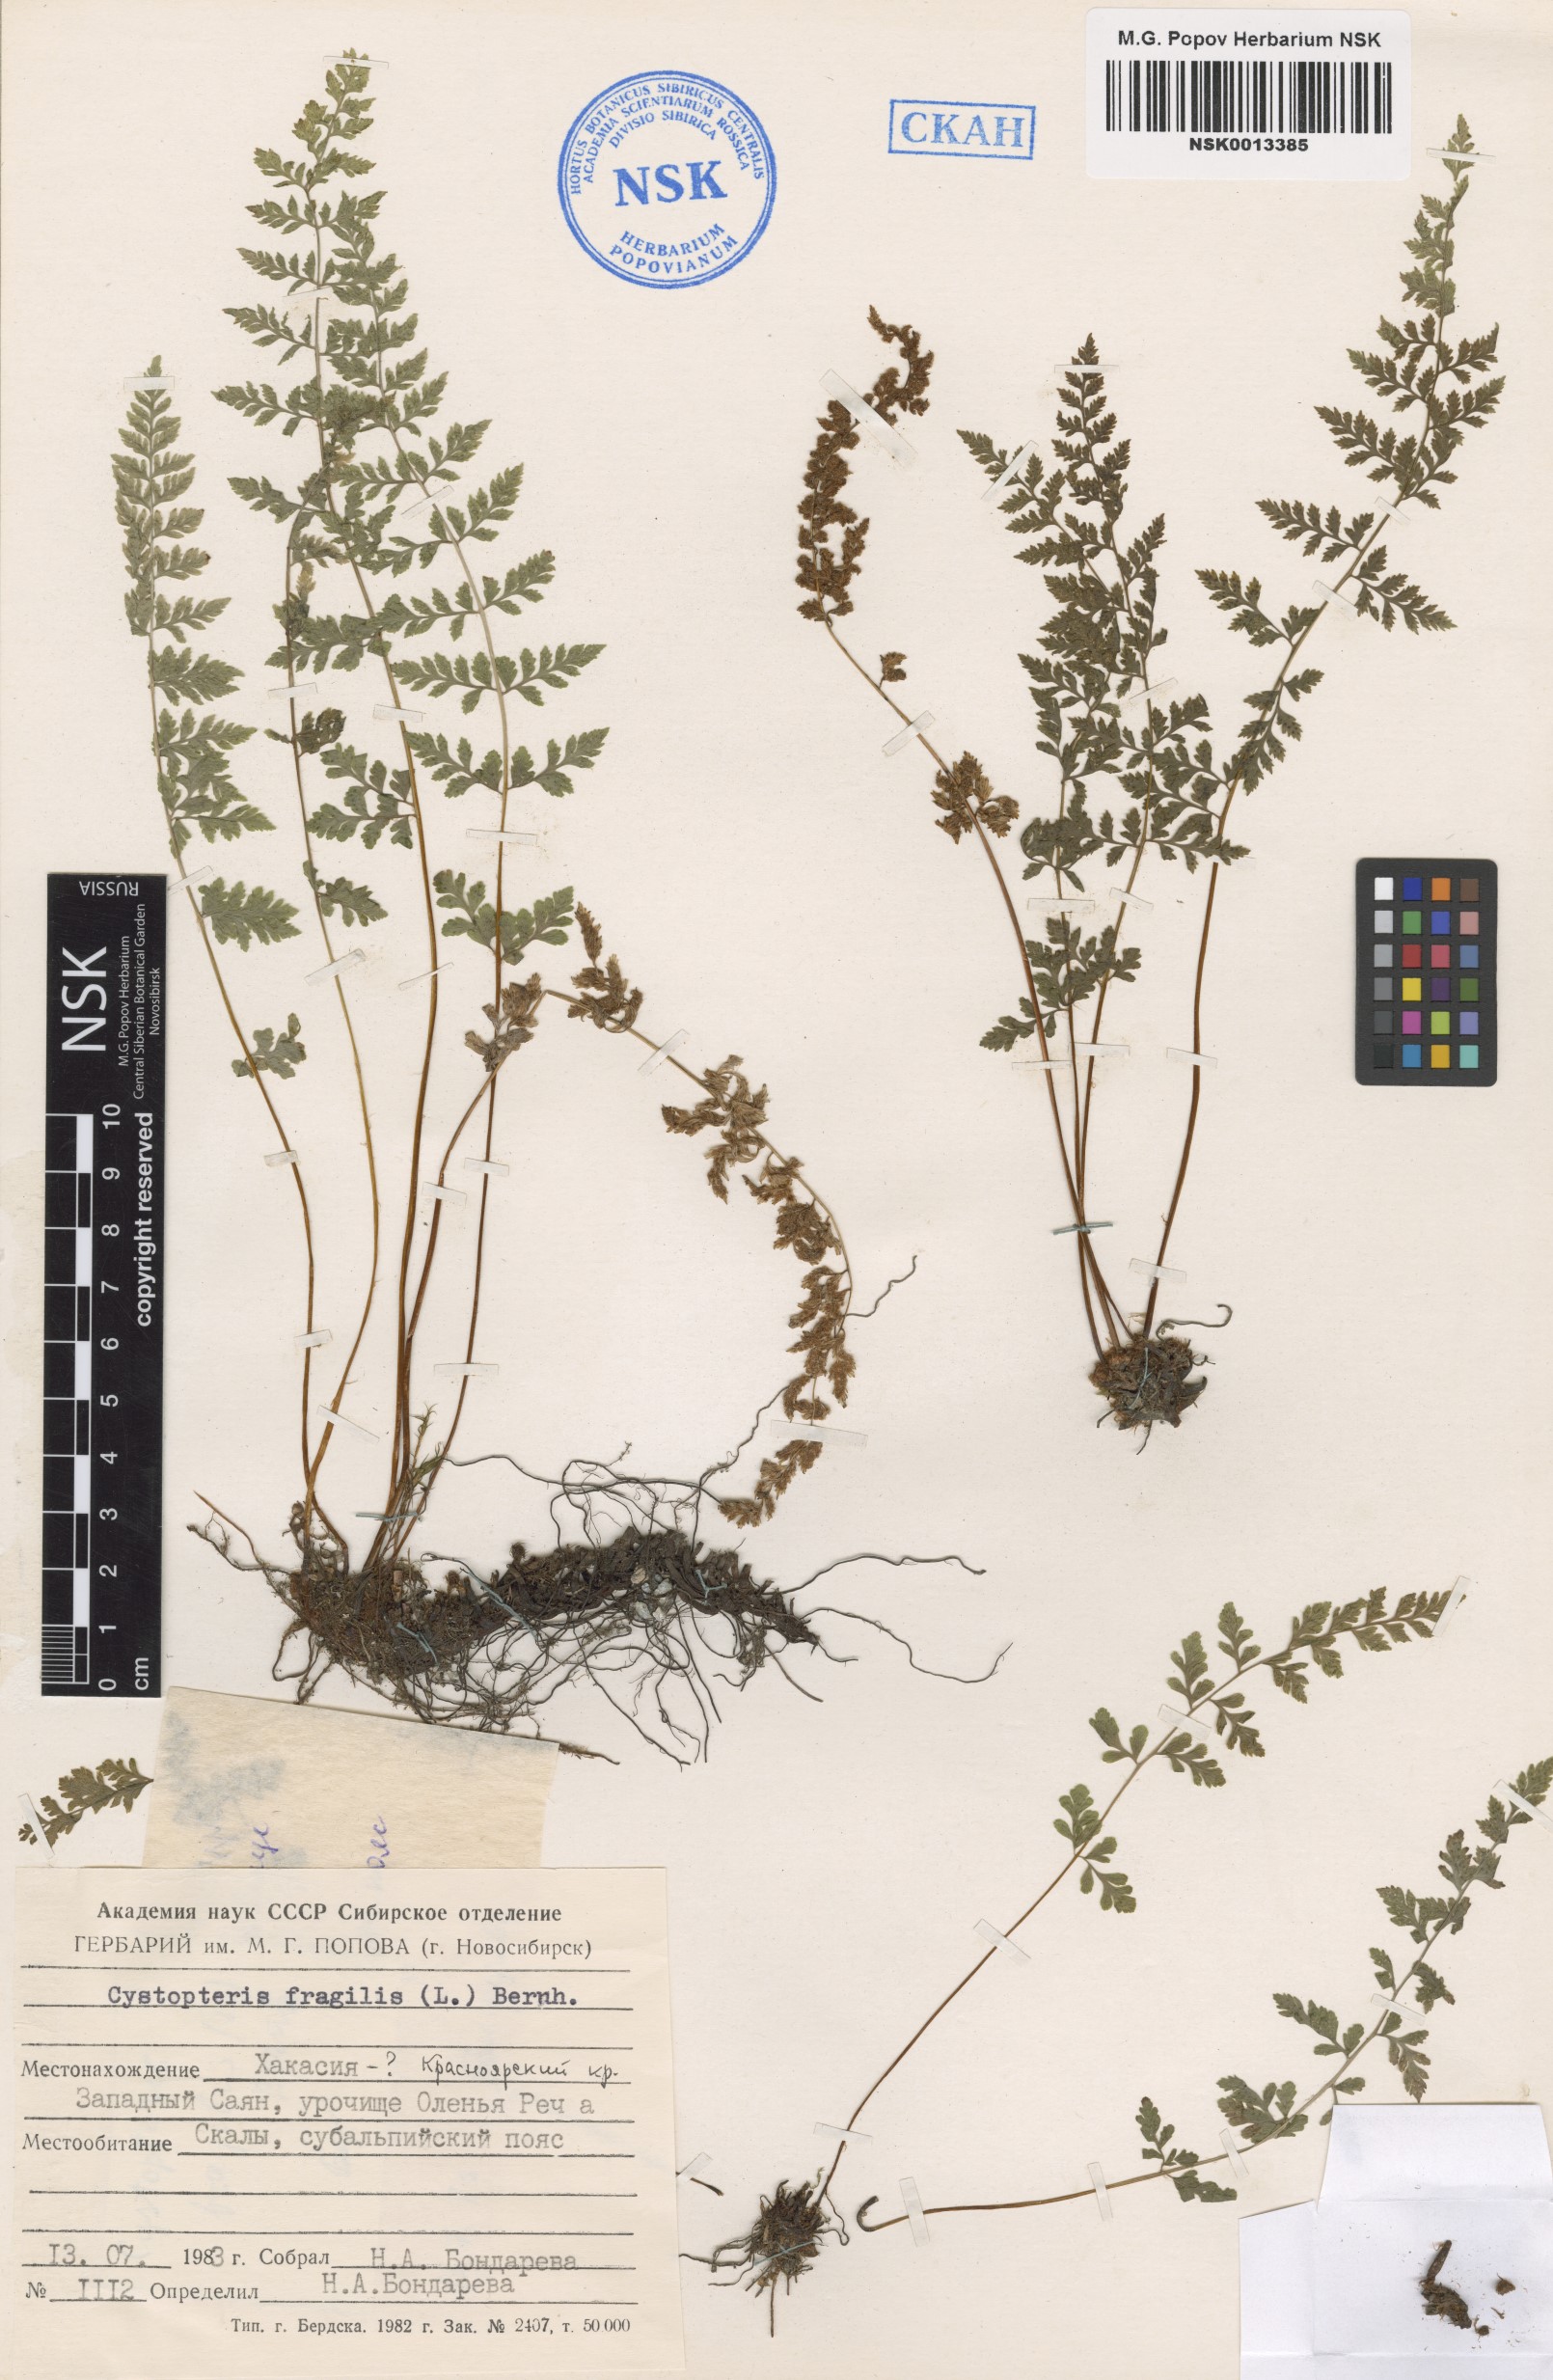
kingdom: Plantae
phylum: Tracheophyta
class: Polypodiopsida
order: Polypodiales
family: Cystopteridaceae
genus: Cystopteris
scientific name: Cystopteris fragilis
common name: Brittle bladder fern
